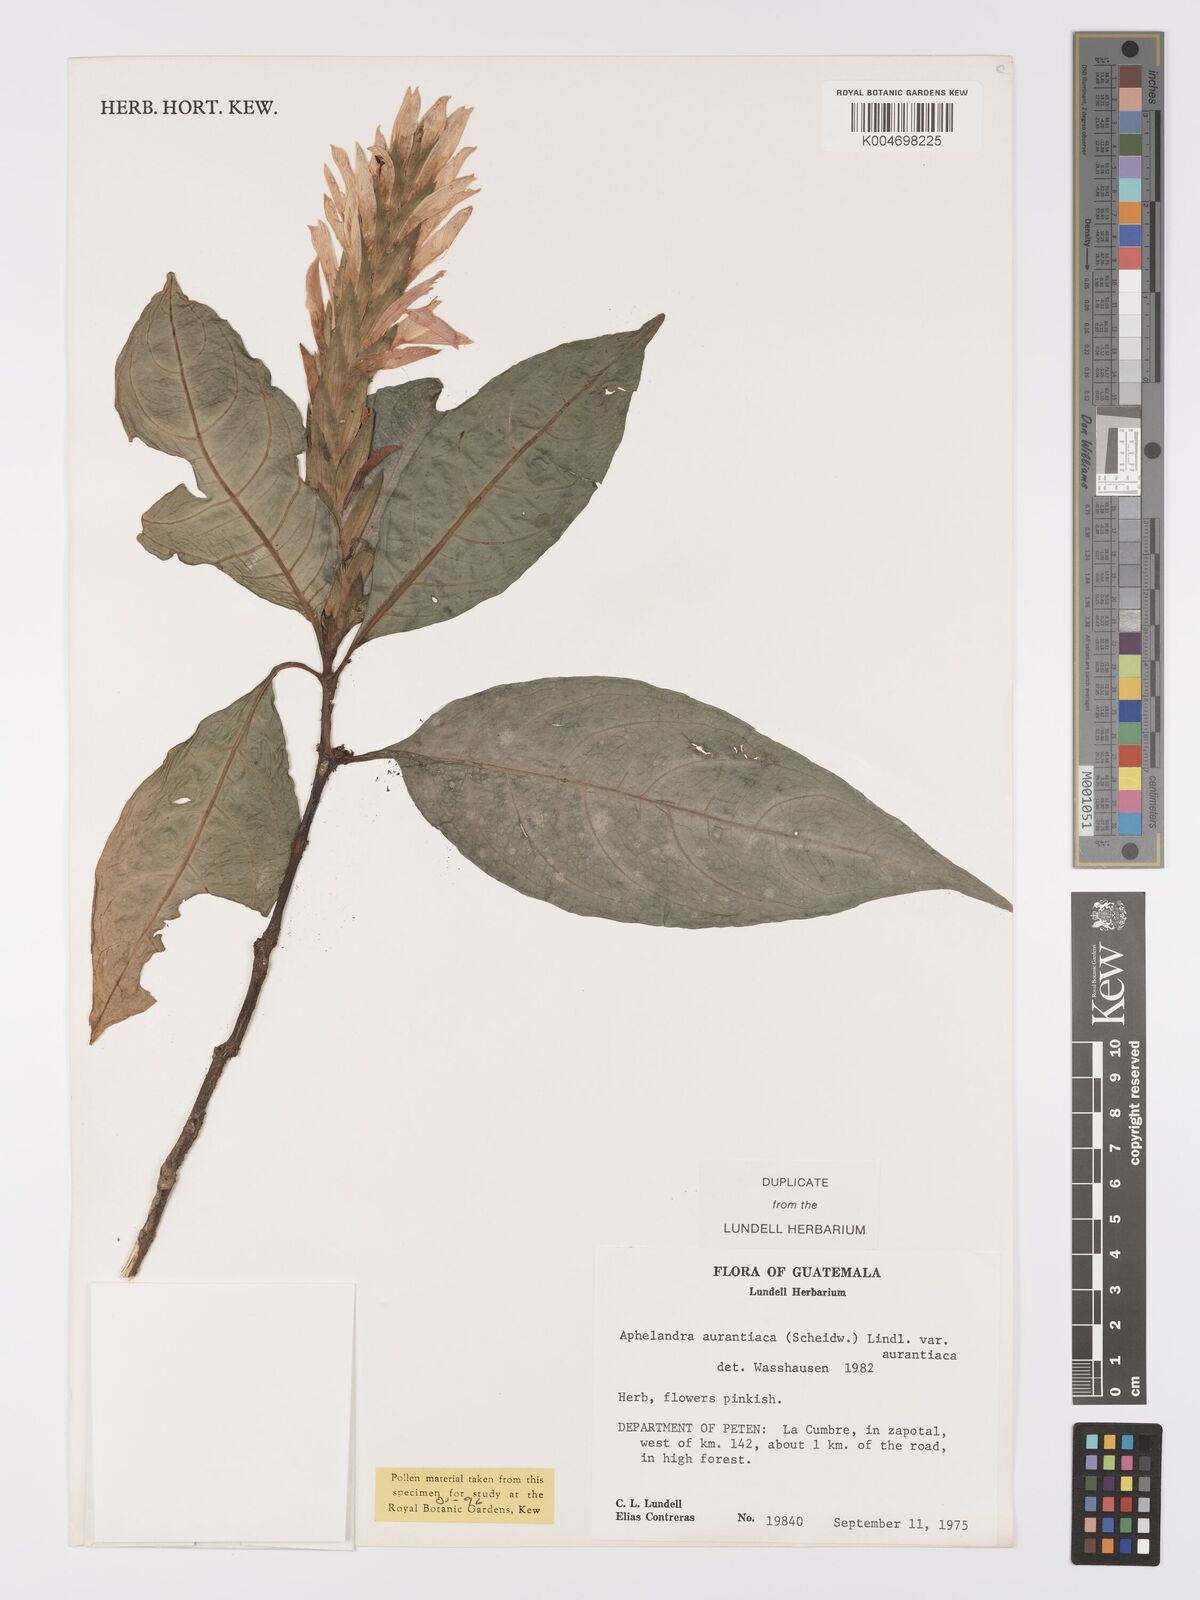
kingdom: Plantae
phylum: Tracheophyta
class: Magnoliopsida
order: Lamiales
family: Acanthaceae
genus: Aphelandra
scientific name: Aphelandra aurantiaca
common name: Fiery spike
